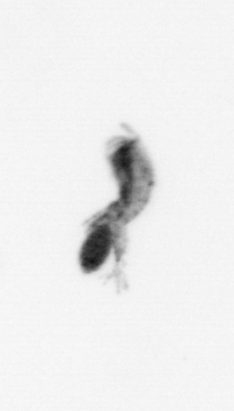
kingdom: Animalia
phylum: Arthropoda
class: Copepoda
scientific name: Copepoda
